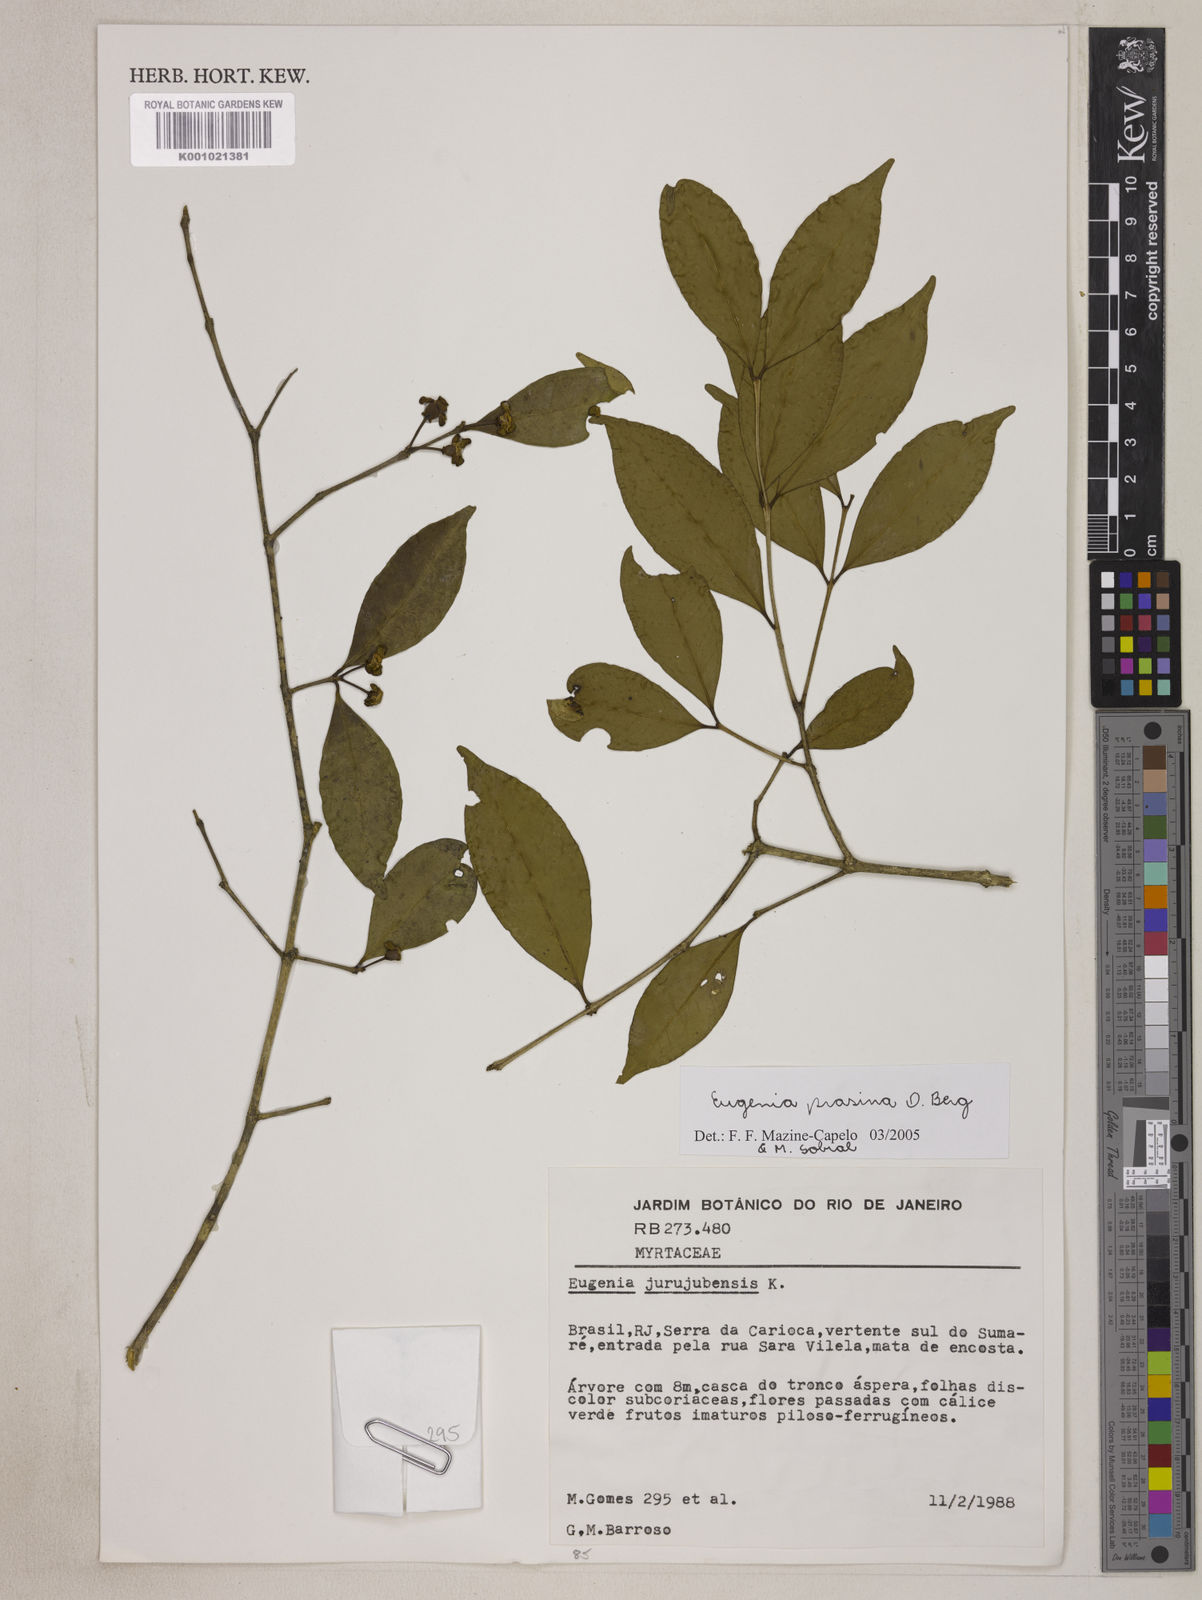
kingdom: Plantae
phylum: Tracheophyta
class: Magnoliopsida
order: Myrtales
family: Myrtaceae
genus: Eugenia
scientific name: Eugenia prasina
